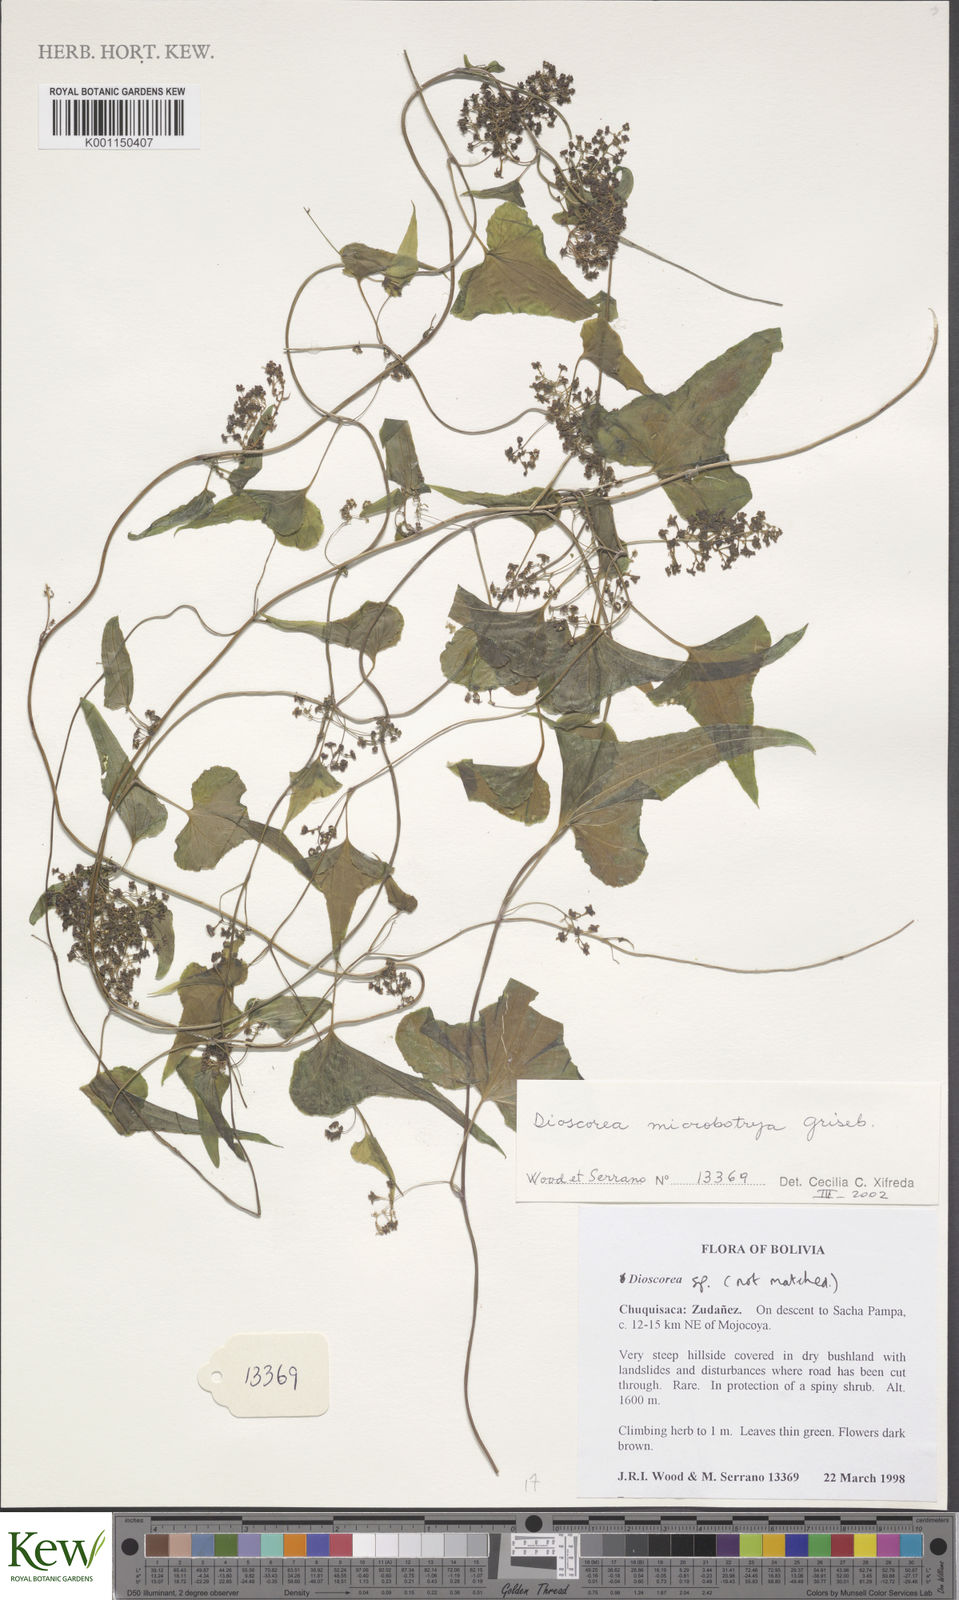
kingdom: Plantae
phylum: Tracheophyta
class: Liliopsida
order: Dioscoreales
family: Dioscoreaceae
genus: Dioscorea
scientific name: Dioscorea microbotrya
